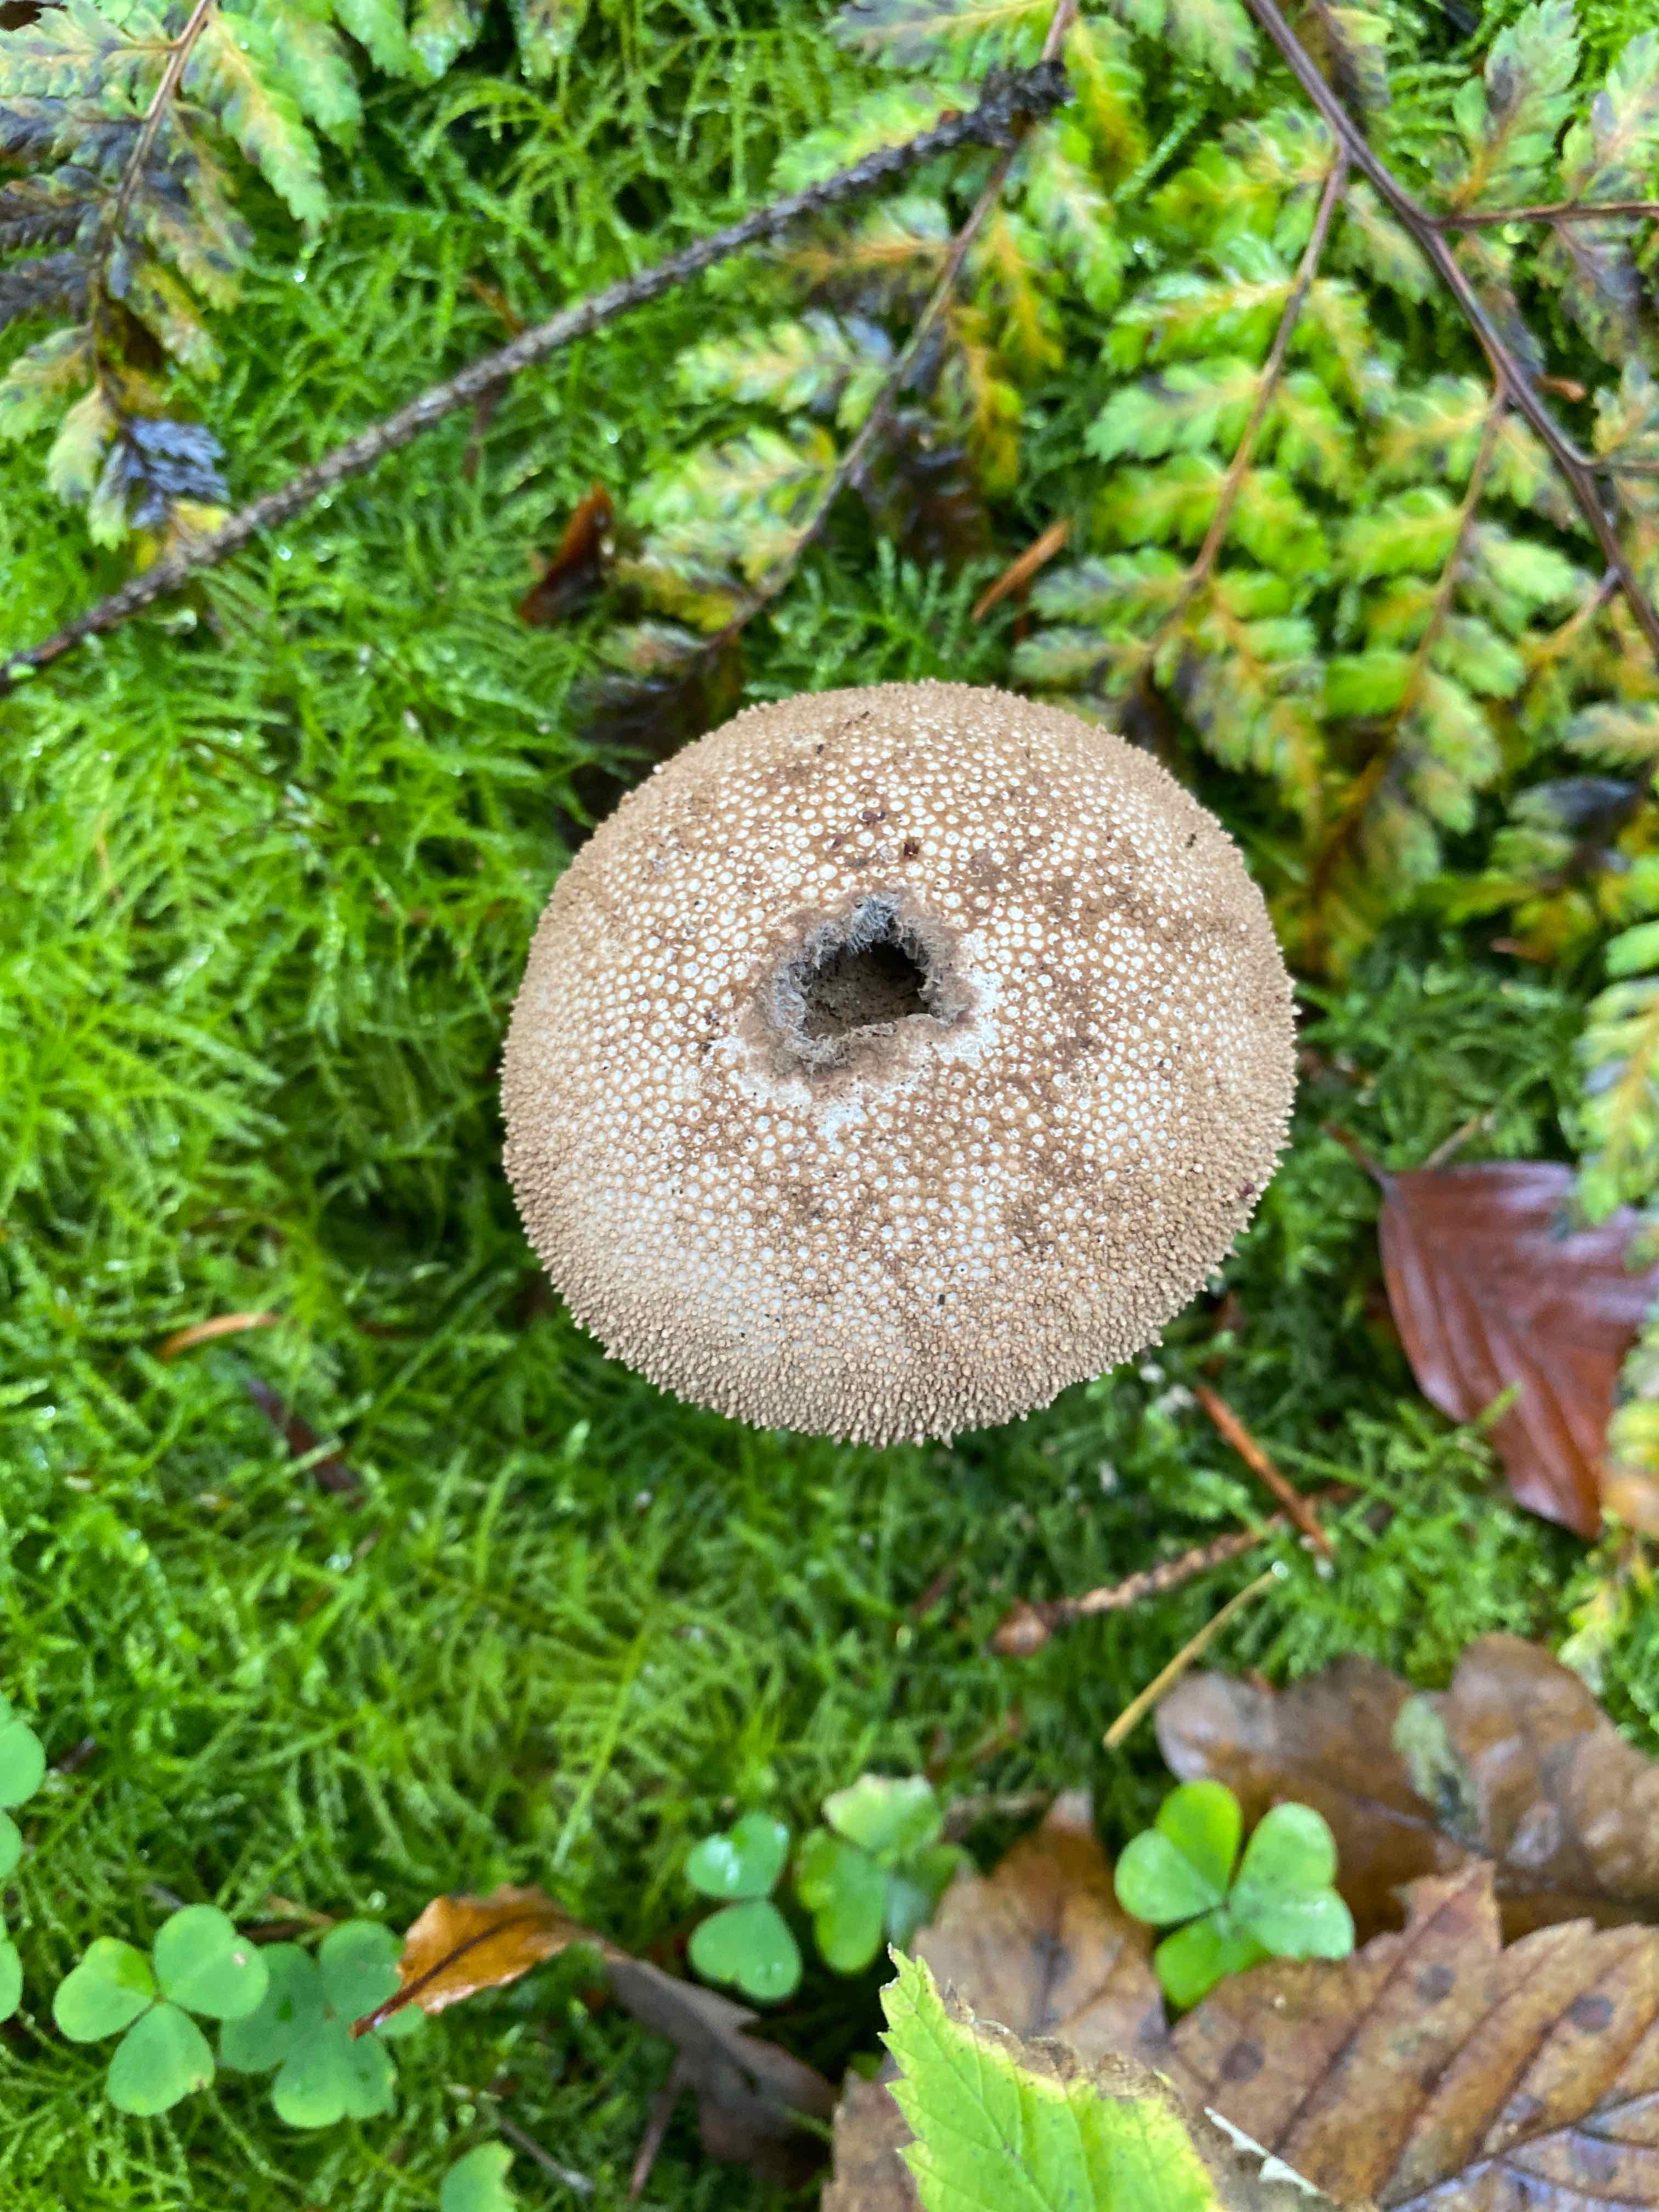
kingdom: Fungi
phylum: Basidiomycota
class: Agaricomycetes
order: Agaricales
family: Lycoperdaceae
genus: Lycoperdon
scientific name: Lycoperdon nigrescens
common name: sortagtig støvbold
